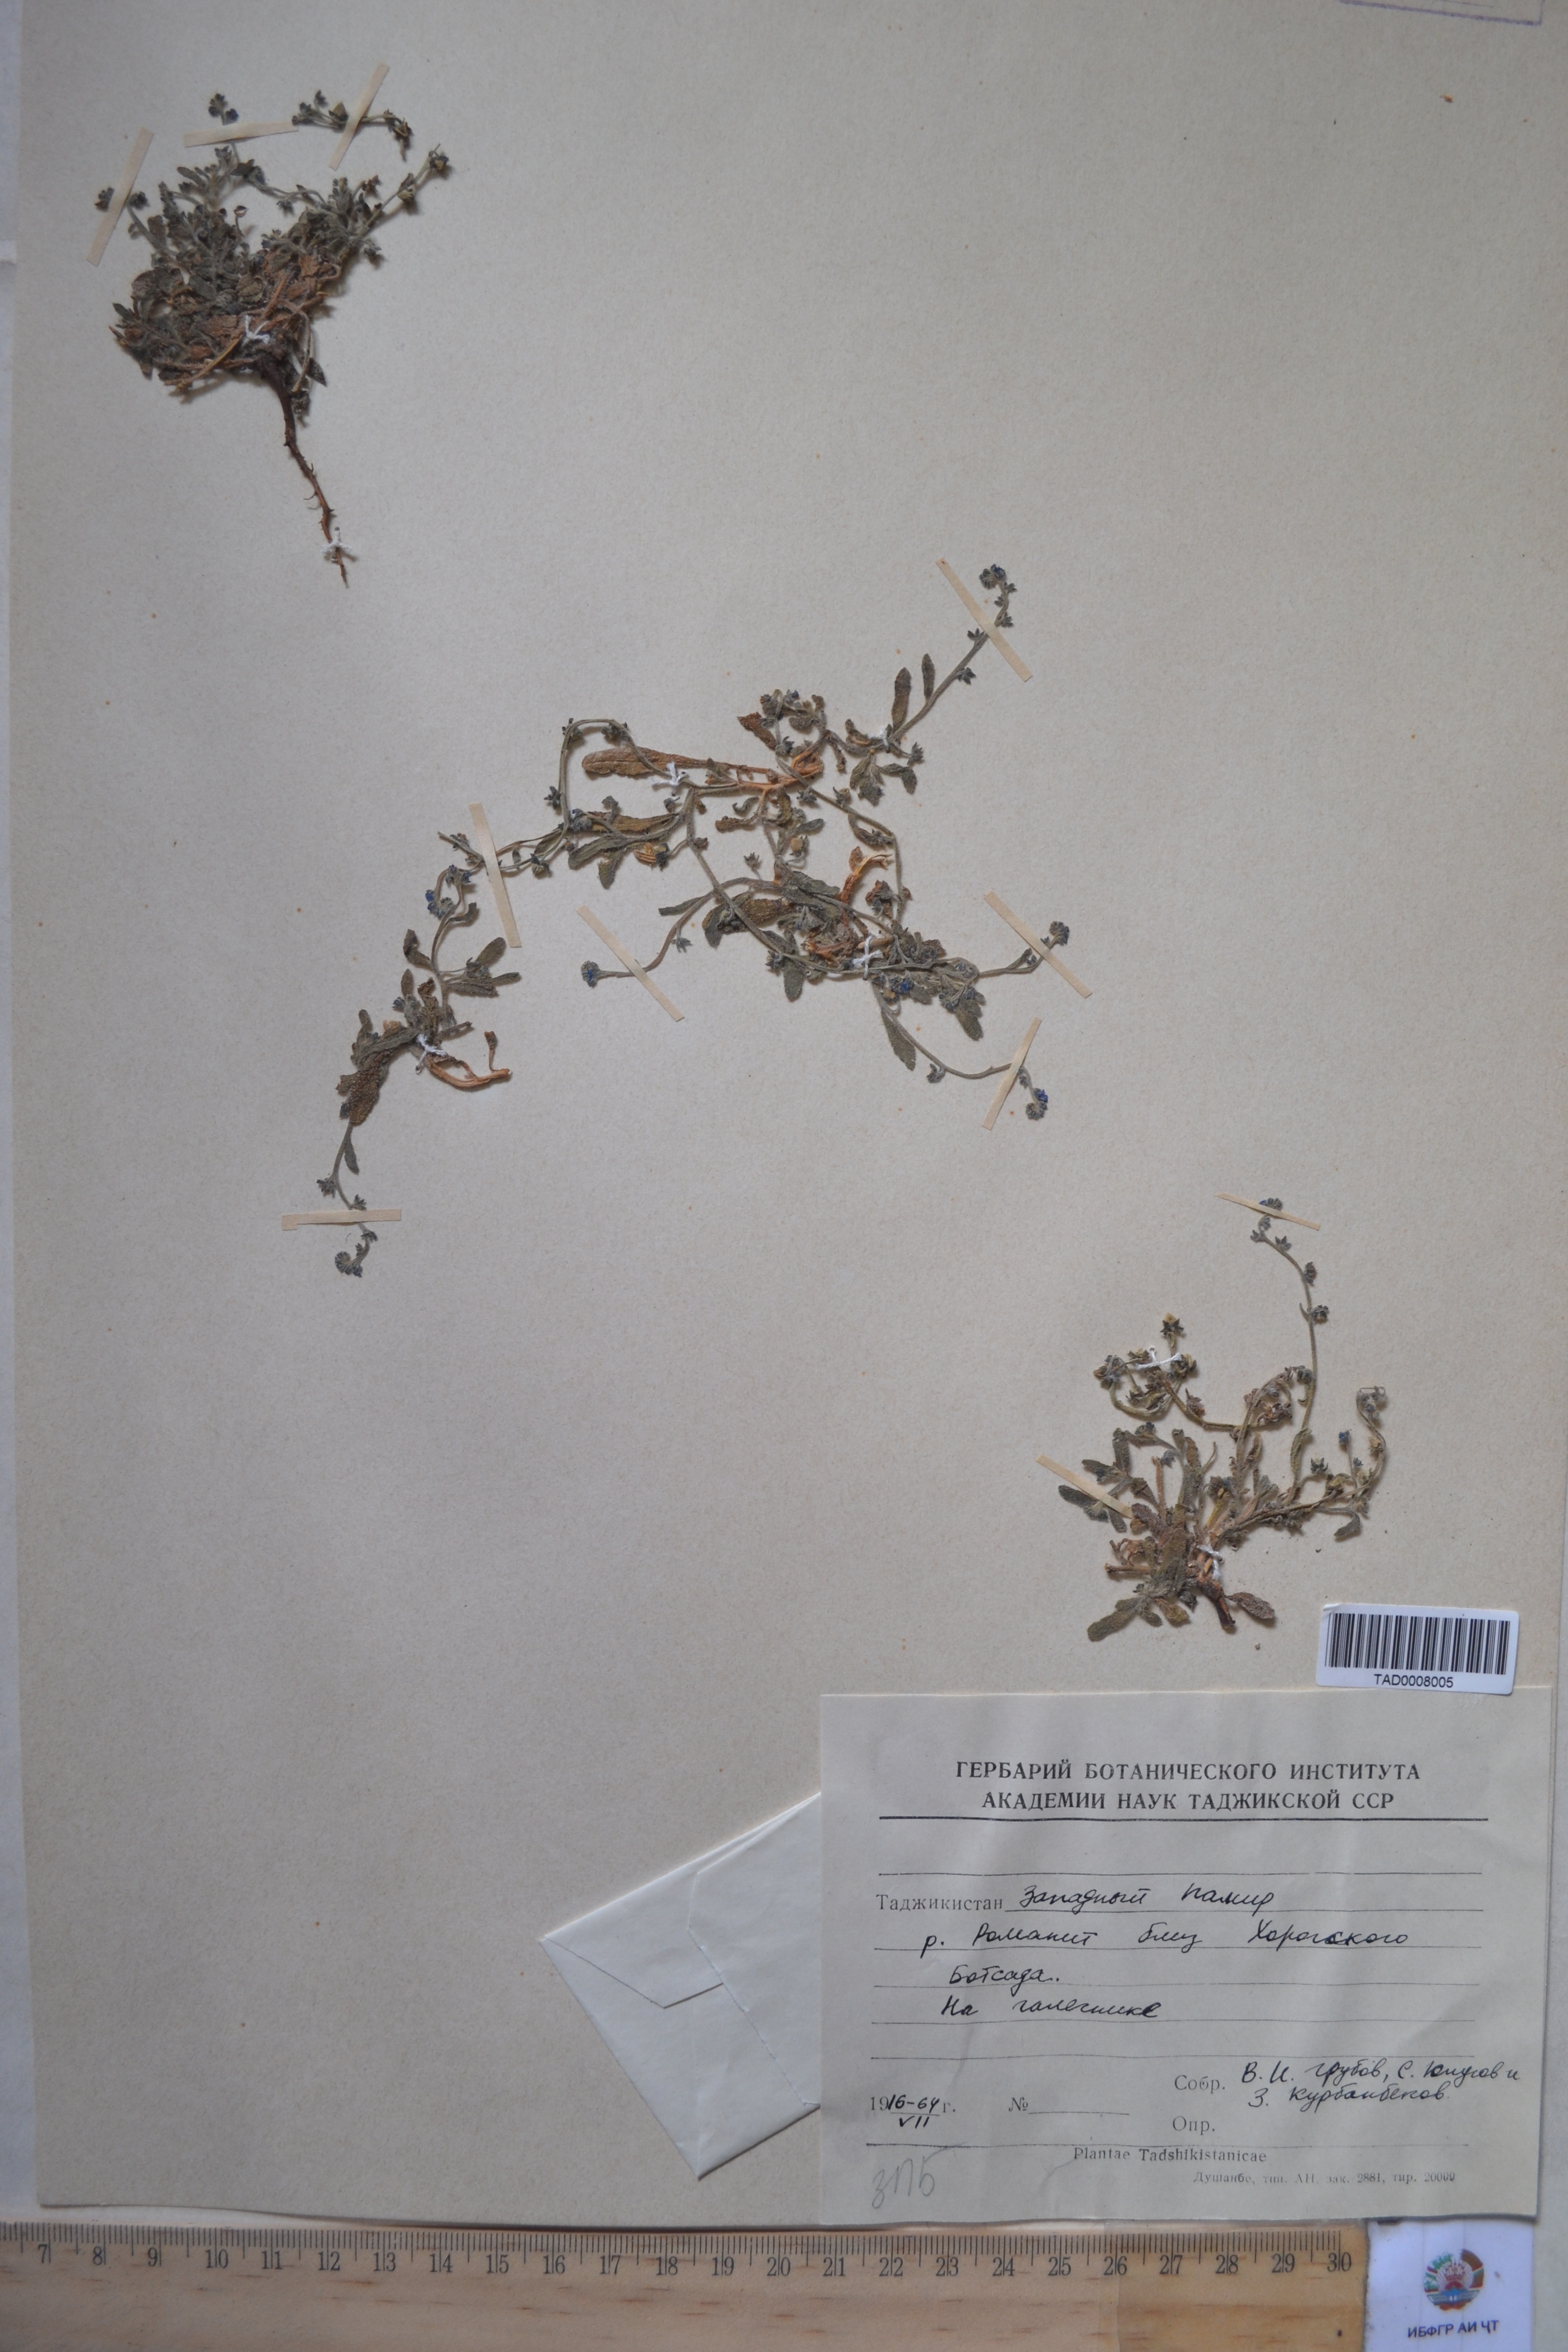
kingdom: Plantae
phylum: Tracheophyta
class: Magnoliopsida
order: Boraginales
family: Boraginaceae
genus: Paracaryum
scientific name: Paracaryum
